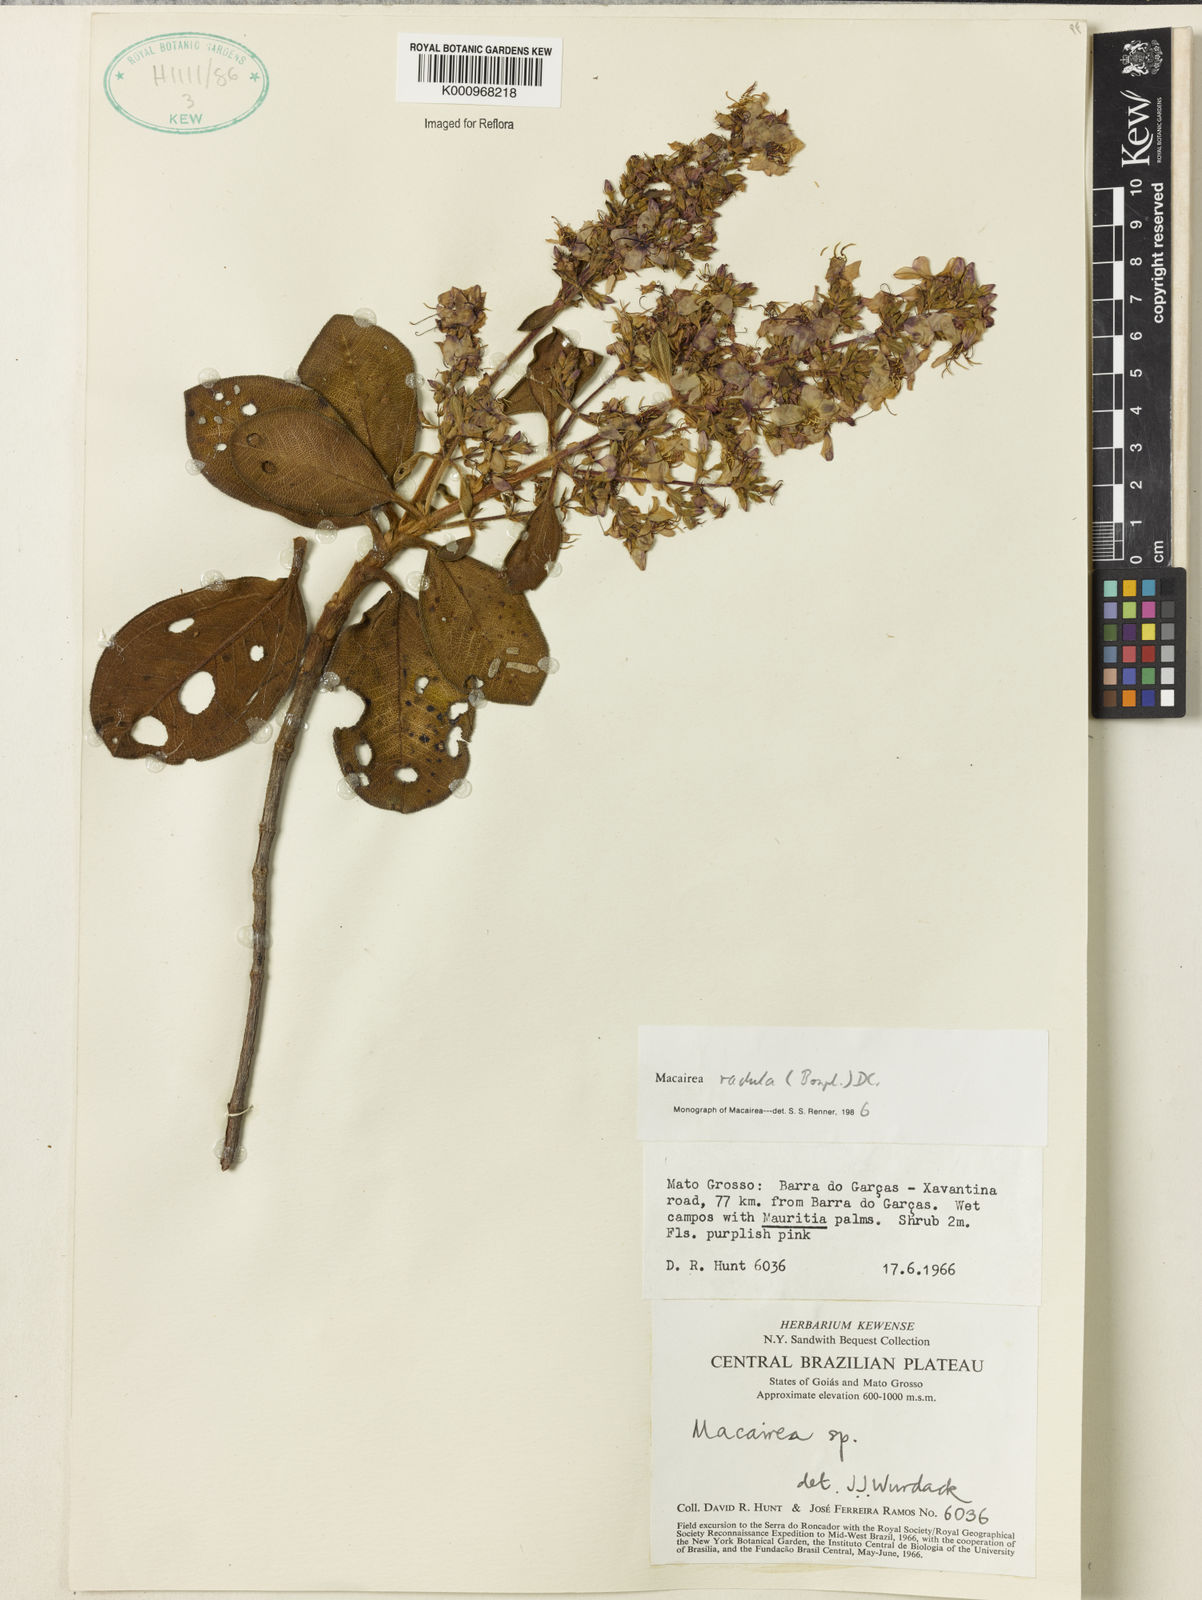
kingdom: Plantae
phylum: Tracheophyta
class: Magnoliopsida
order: Myrtales
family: Melastomataceae
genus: Macairea
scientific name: Macairea radula
